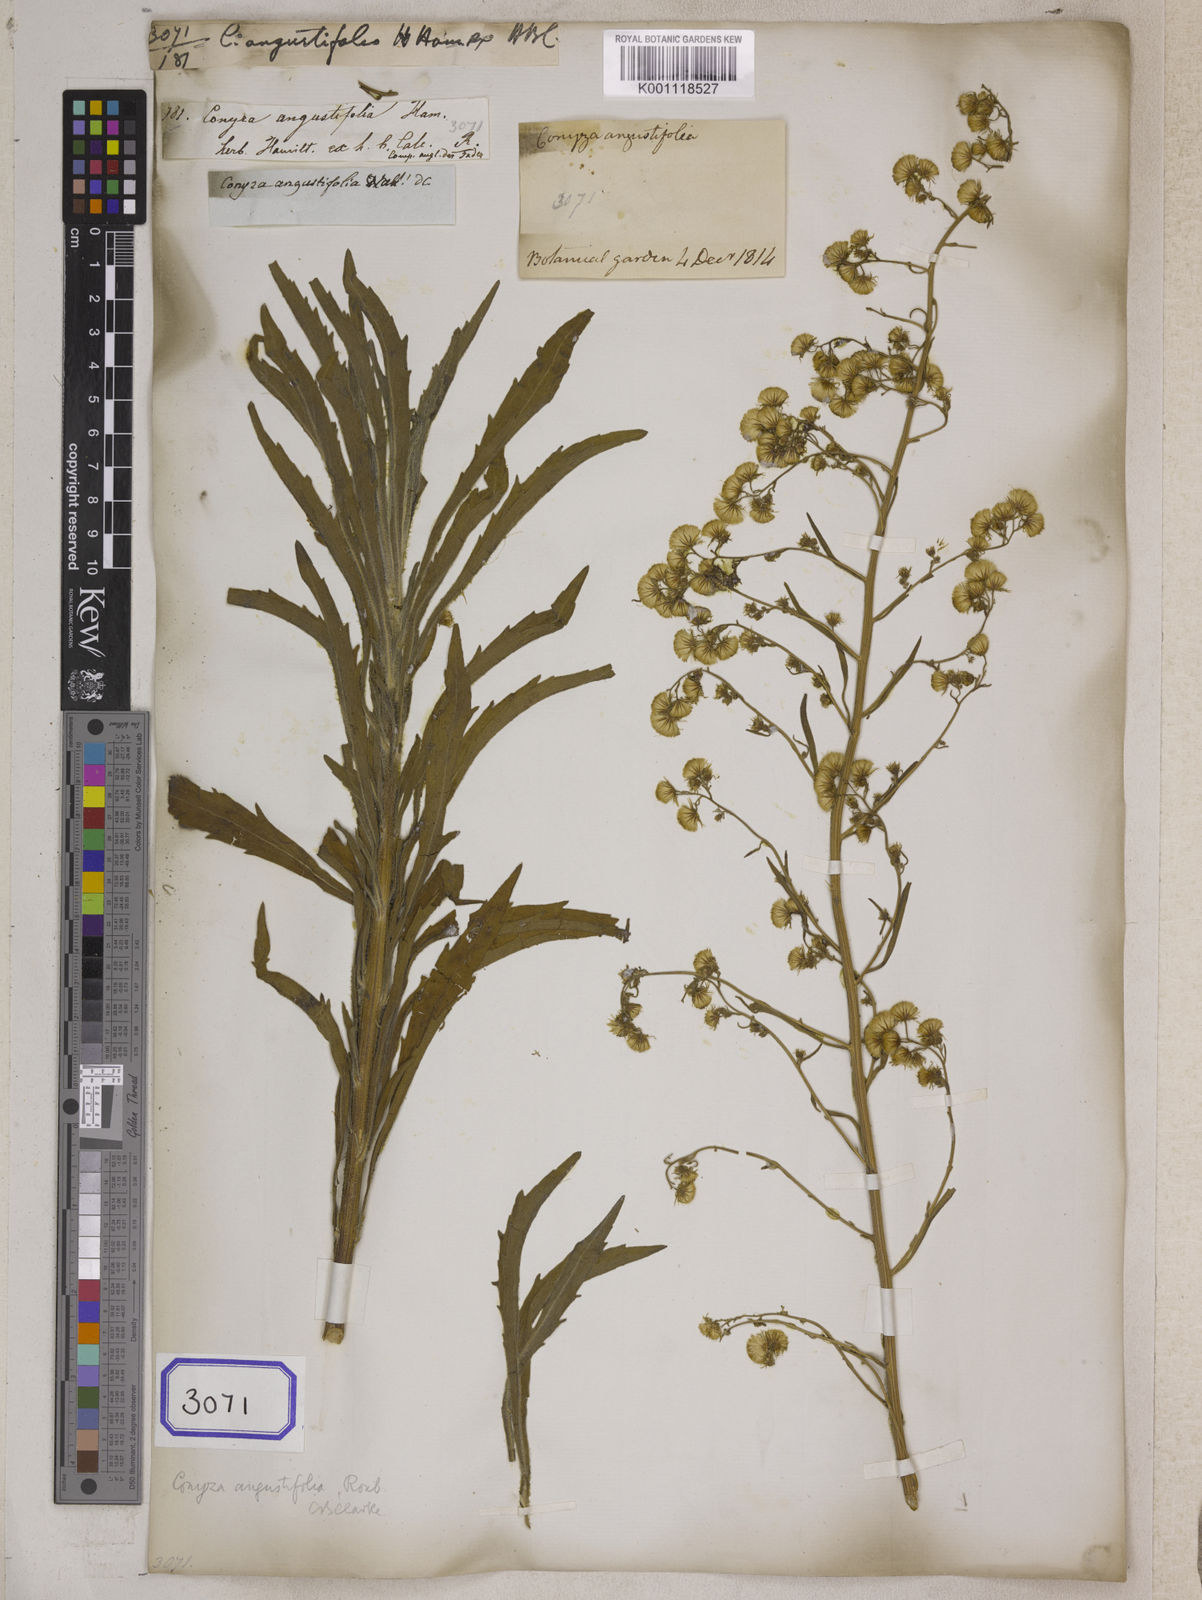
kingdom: Plantae
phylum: Tracheophyta
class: Magnoliopsida
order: Asterales
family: Asteraceae
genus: Conyza
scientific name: Conyza angustifolia
